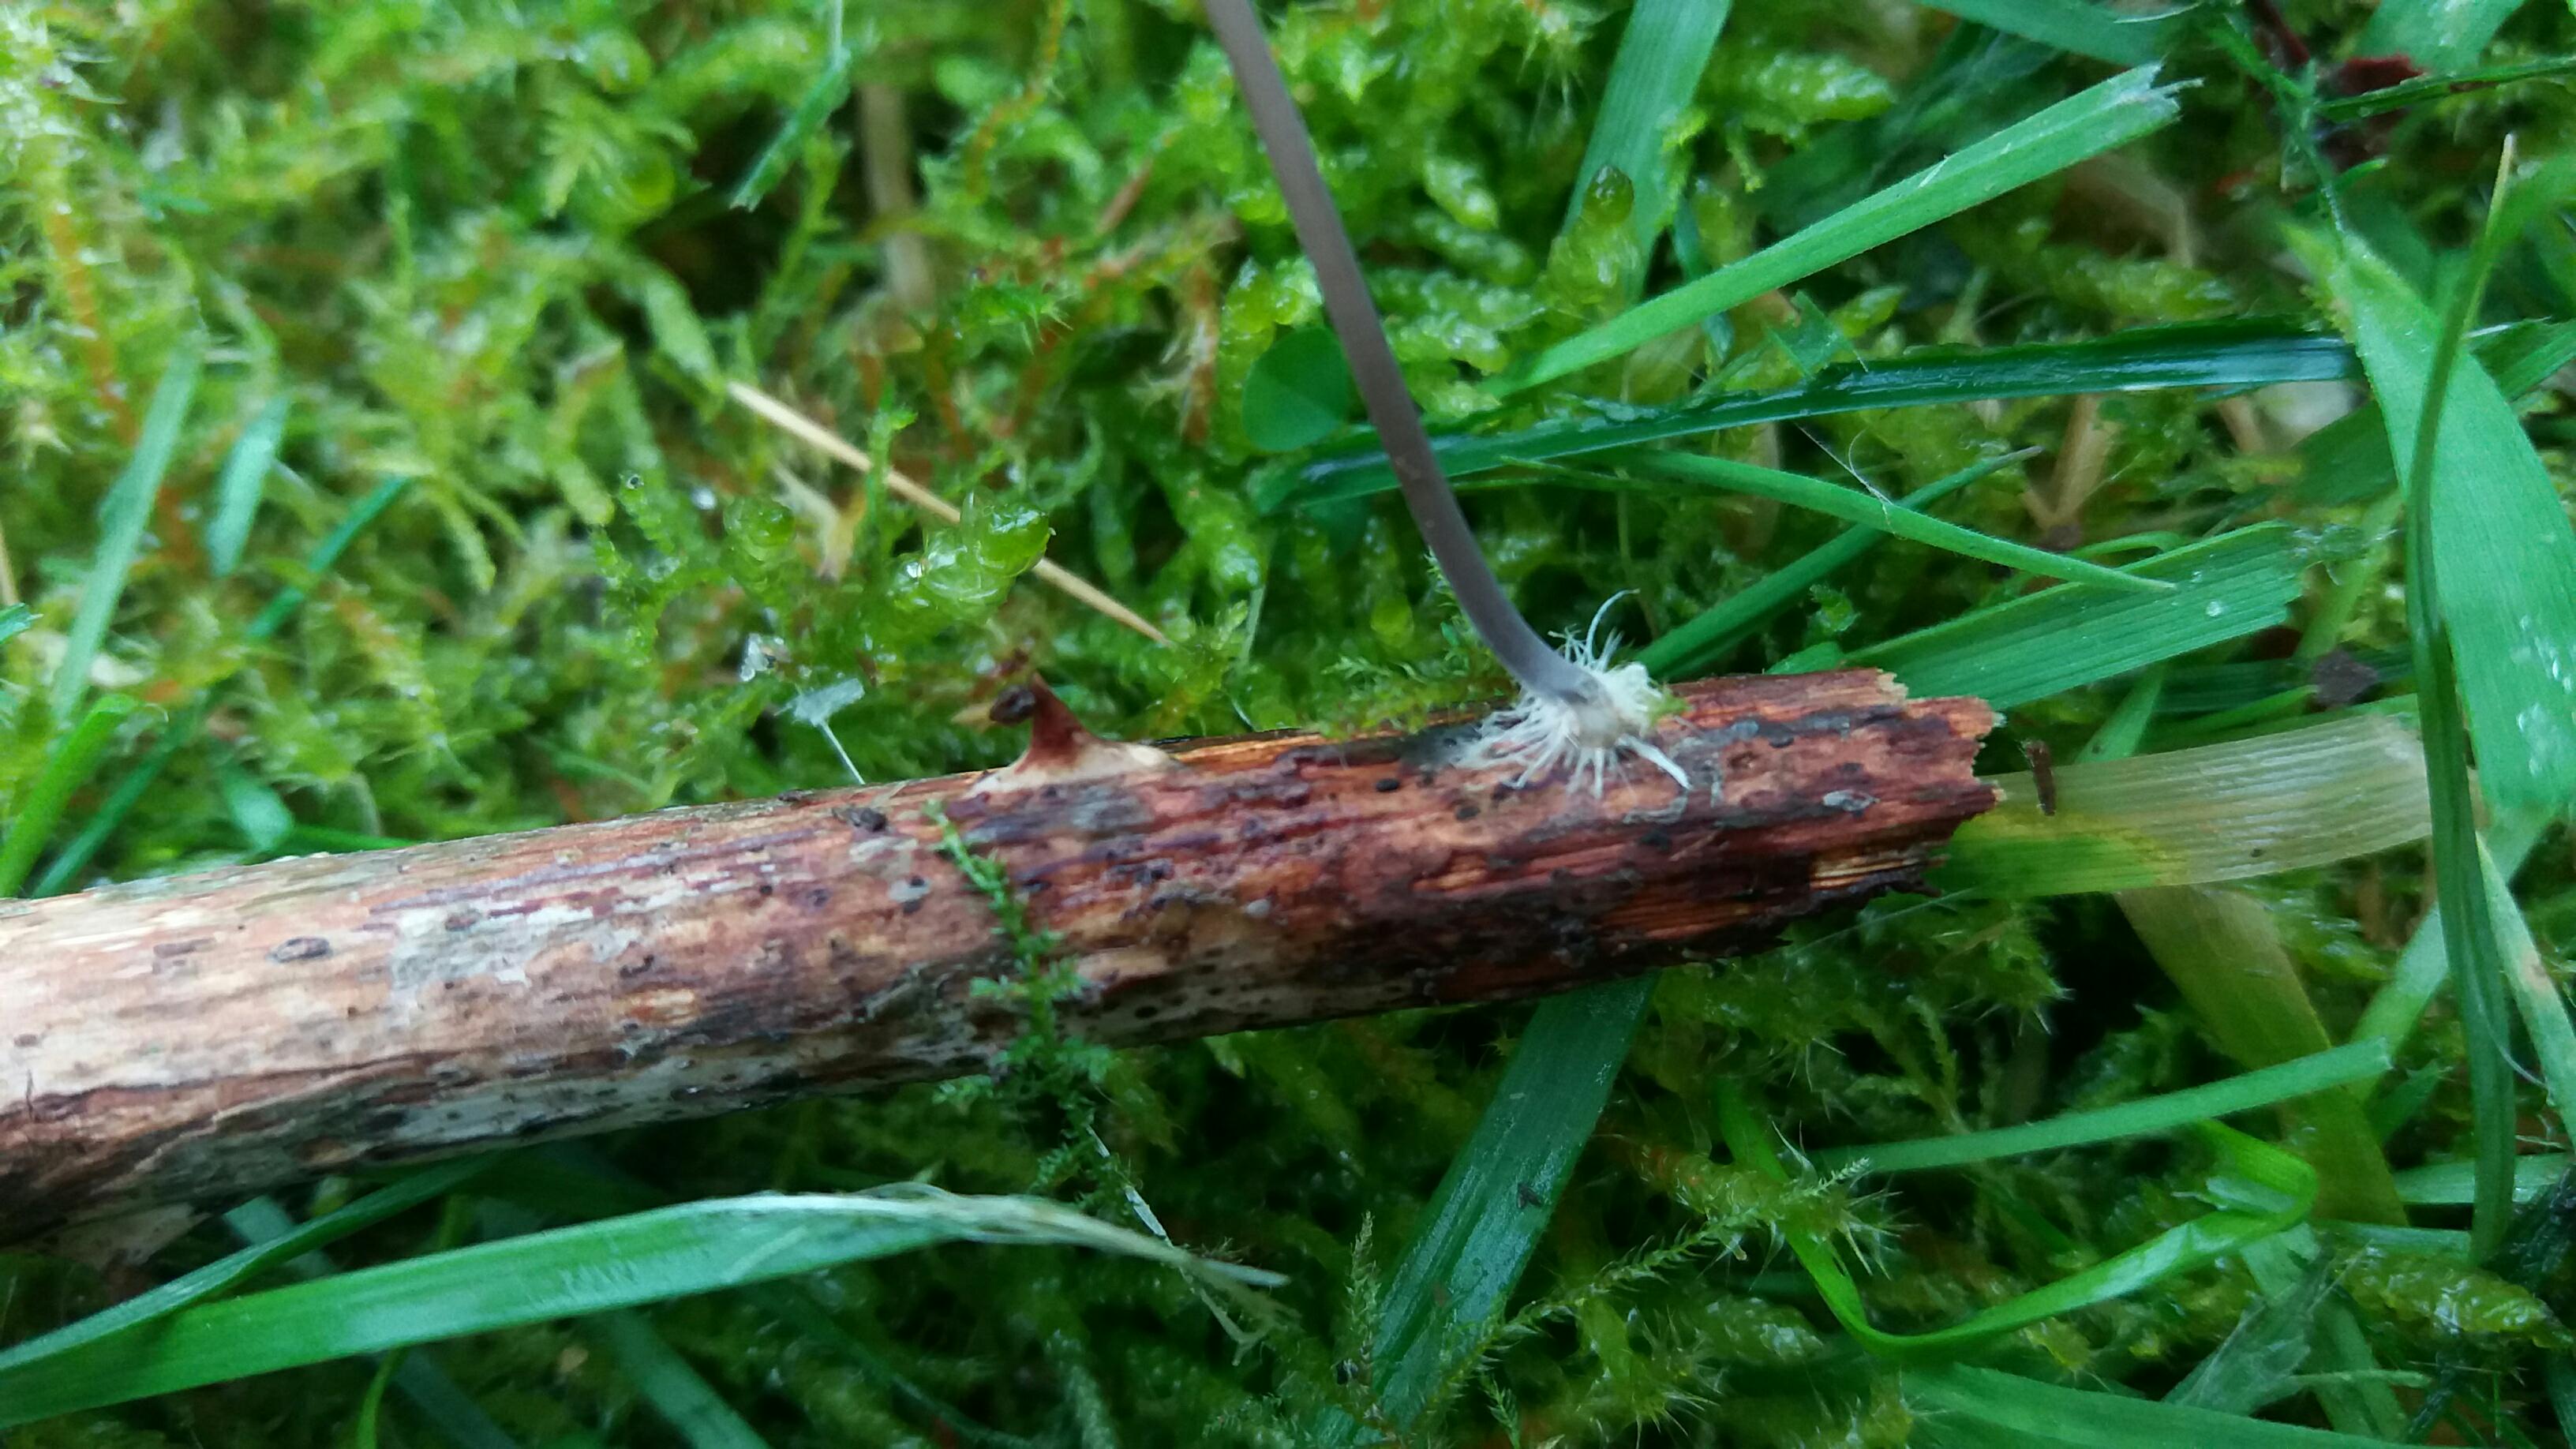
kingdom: Fungi
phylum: Basidiomycota
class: Agaricomycetes
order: Agaricales
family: Mycenaceae
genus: Mycena
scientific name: Mycena arcangeliana
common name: oliven-huesvamp
